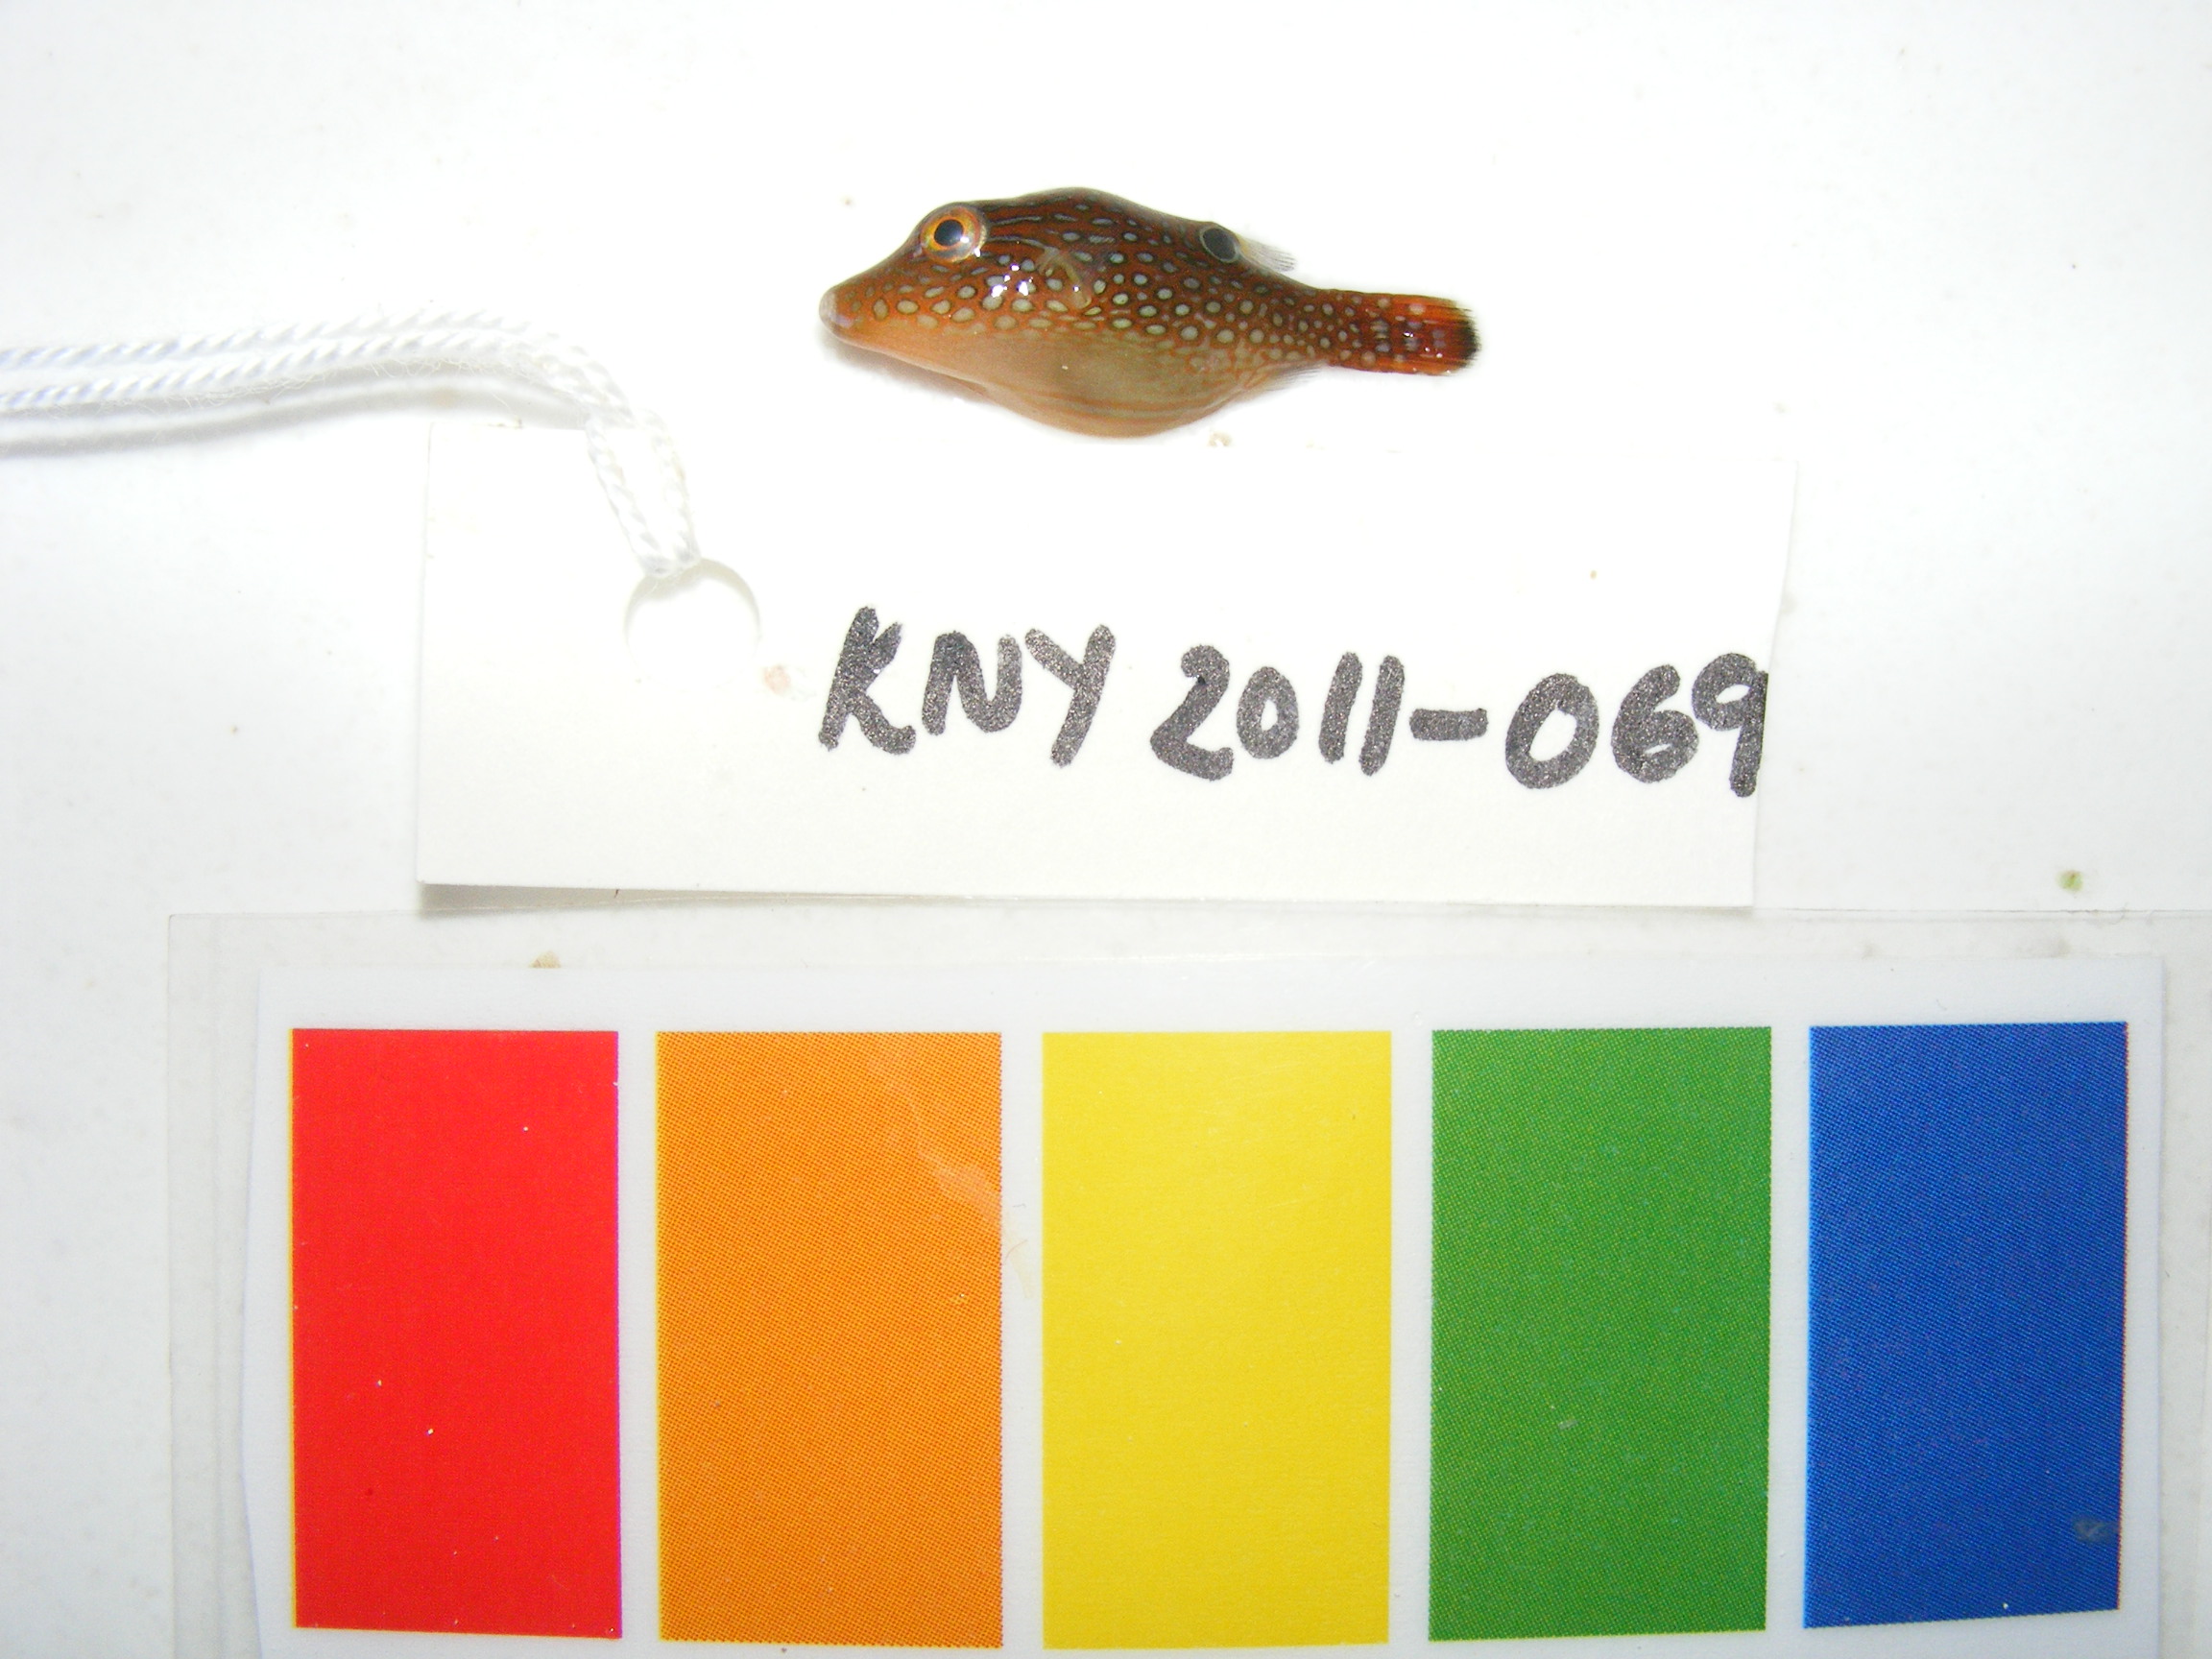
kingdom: Animalia
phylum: Chordata
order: Tetraodontiformes
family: Tetraodontidae
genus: Canthigaster
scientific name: Canthigaster solandri
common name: False-eye toby
